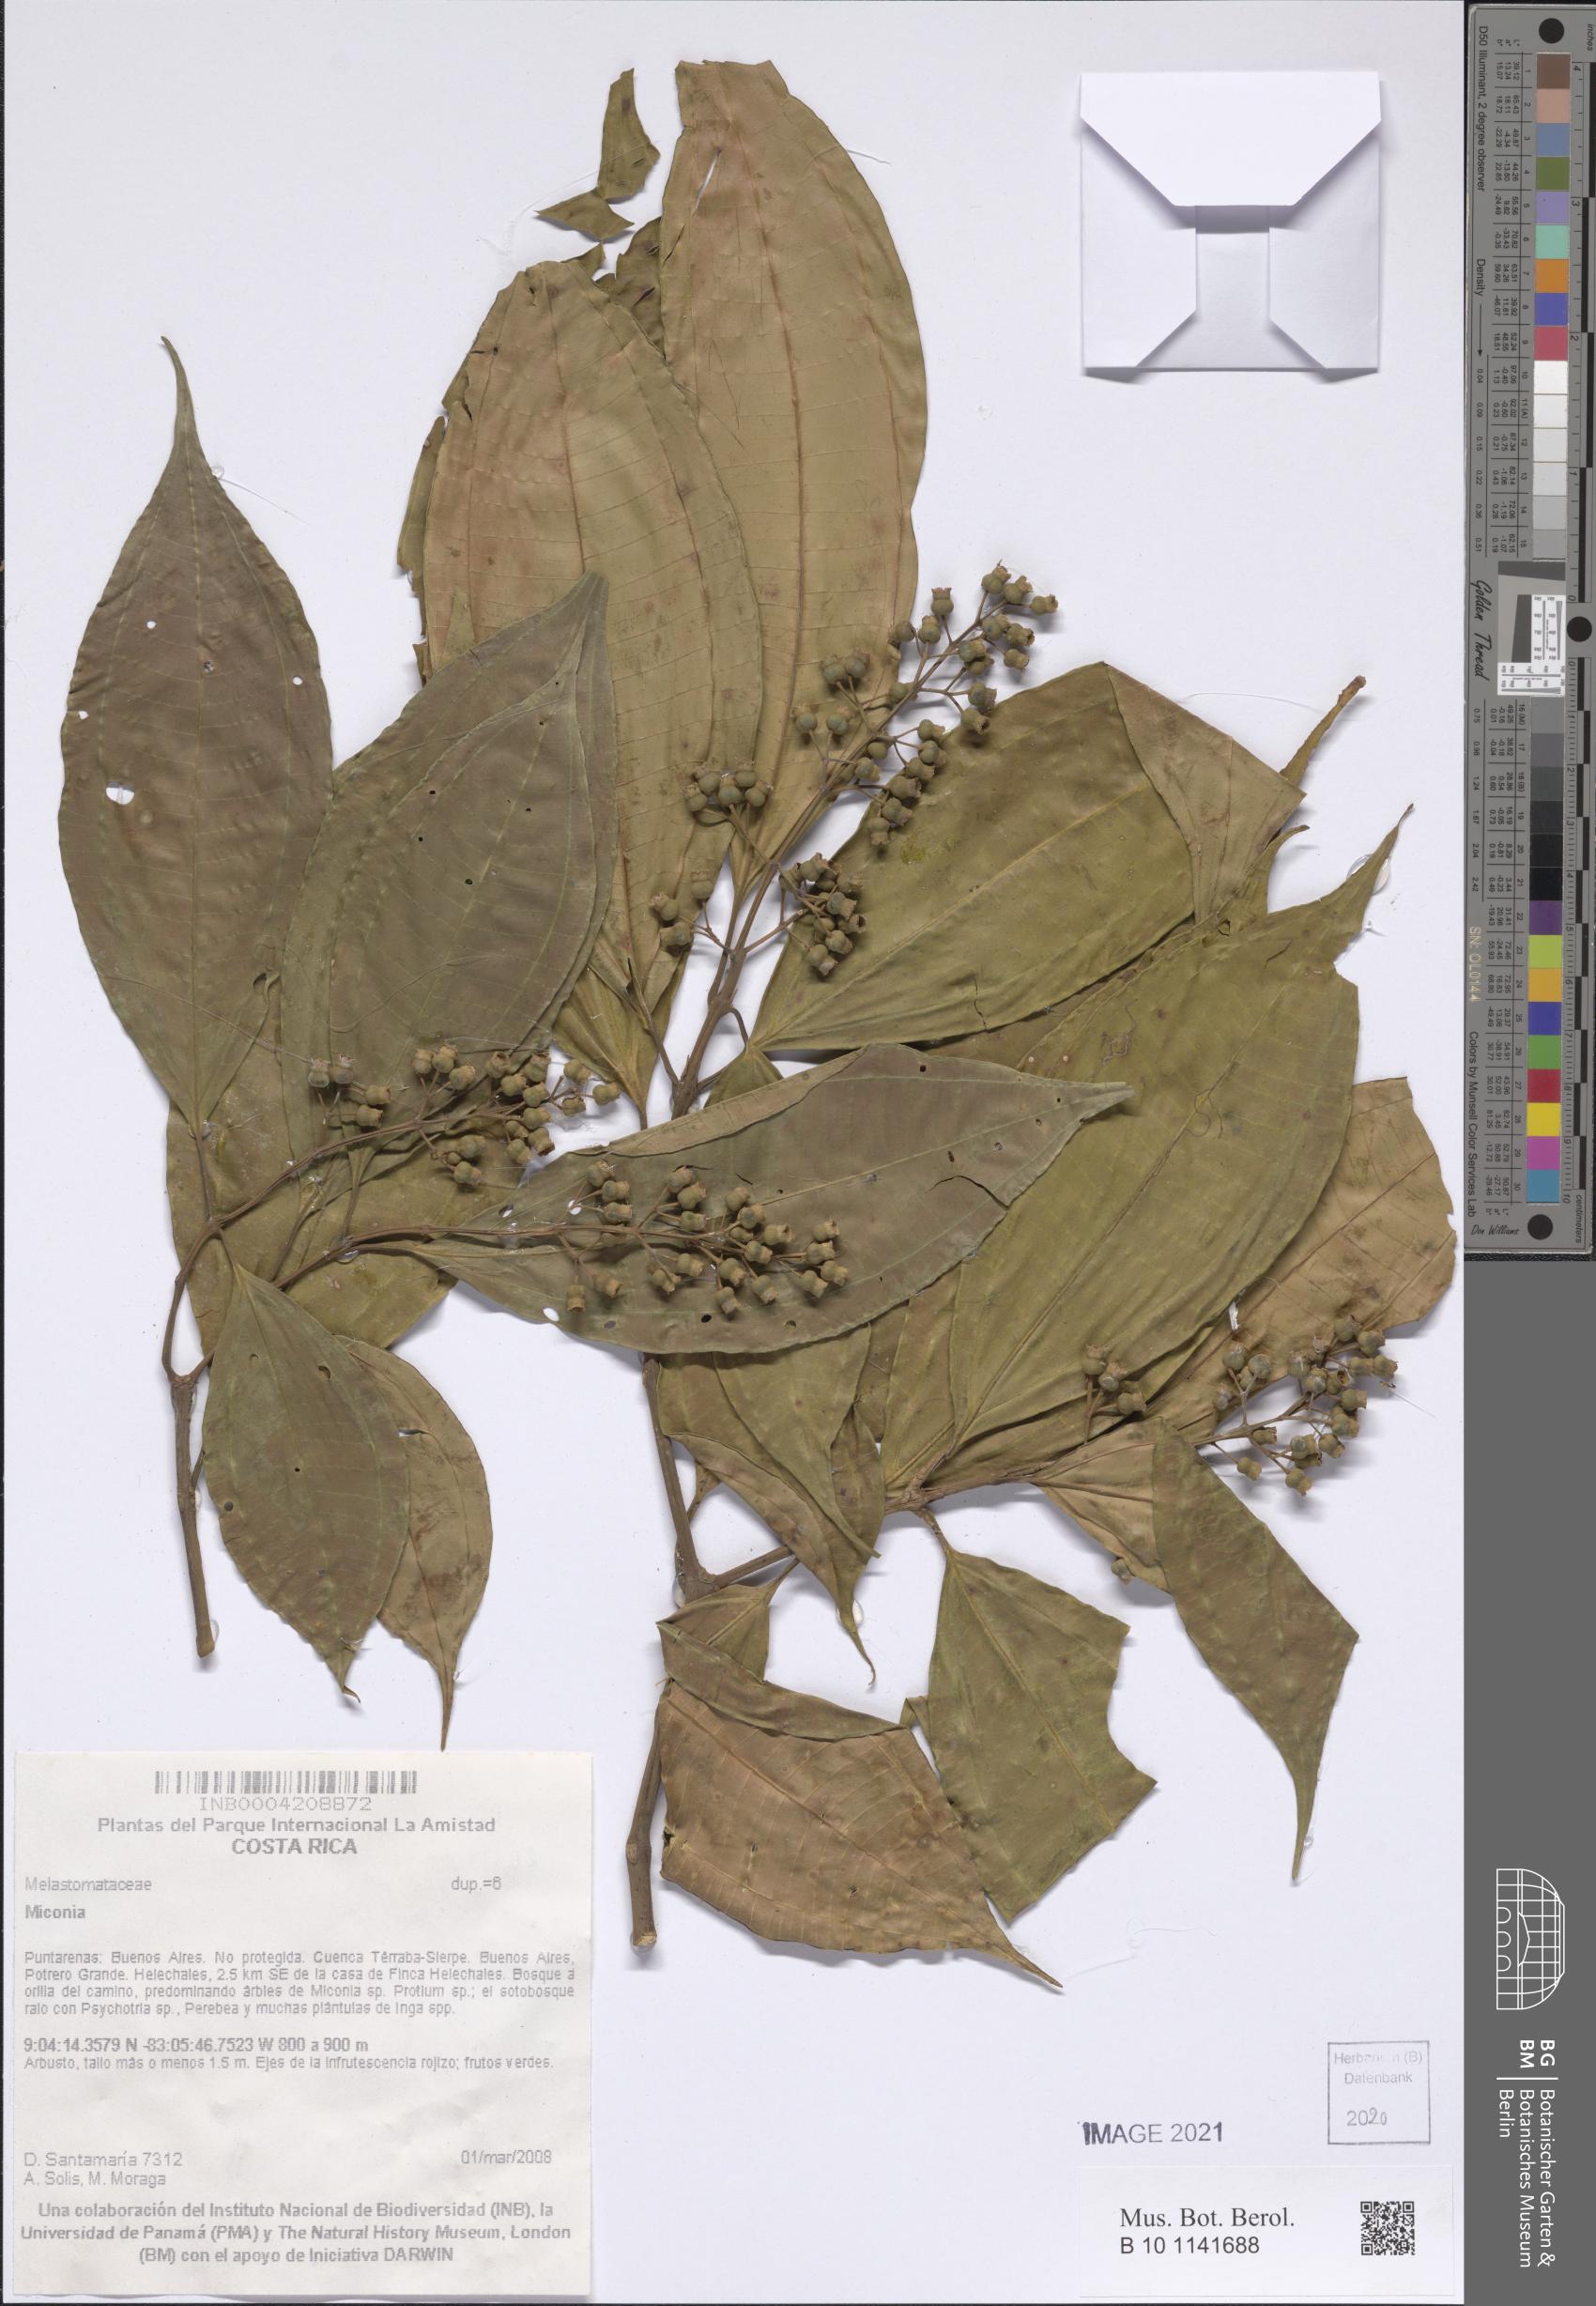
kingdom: Plantae
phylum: Tracheophyta
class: Magnoliopsida
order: Myrtales
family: Melastomataceae
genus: Miconia
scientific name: Miconia
